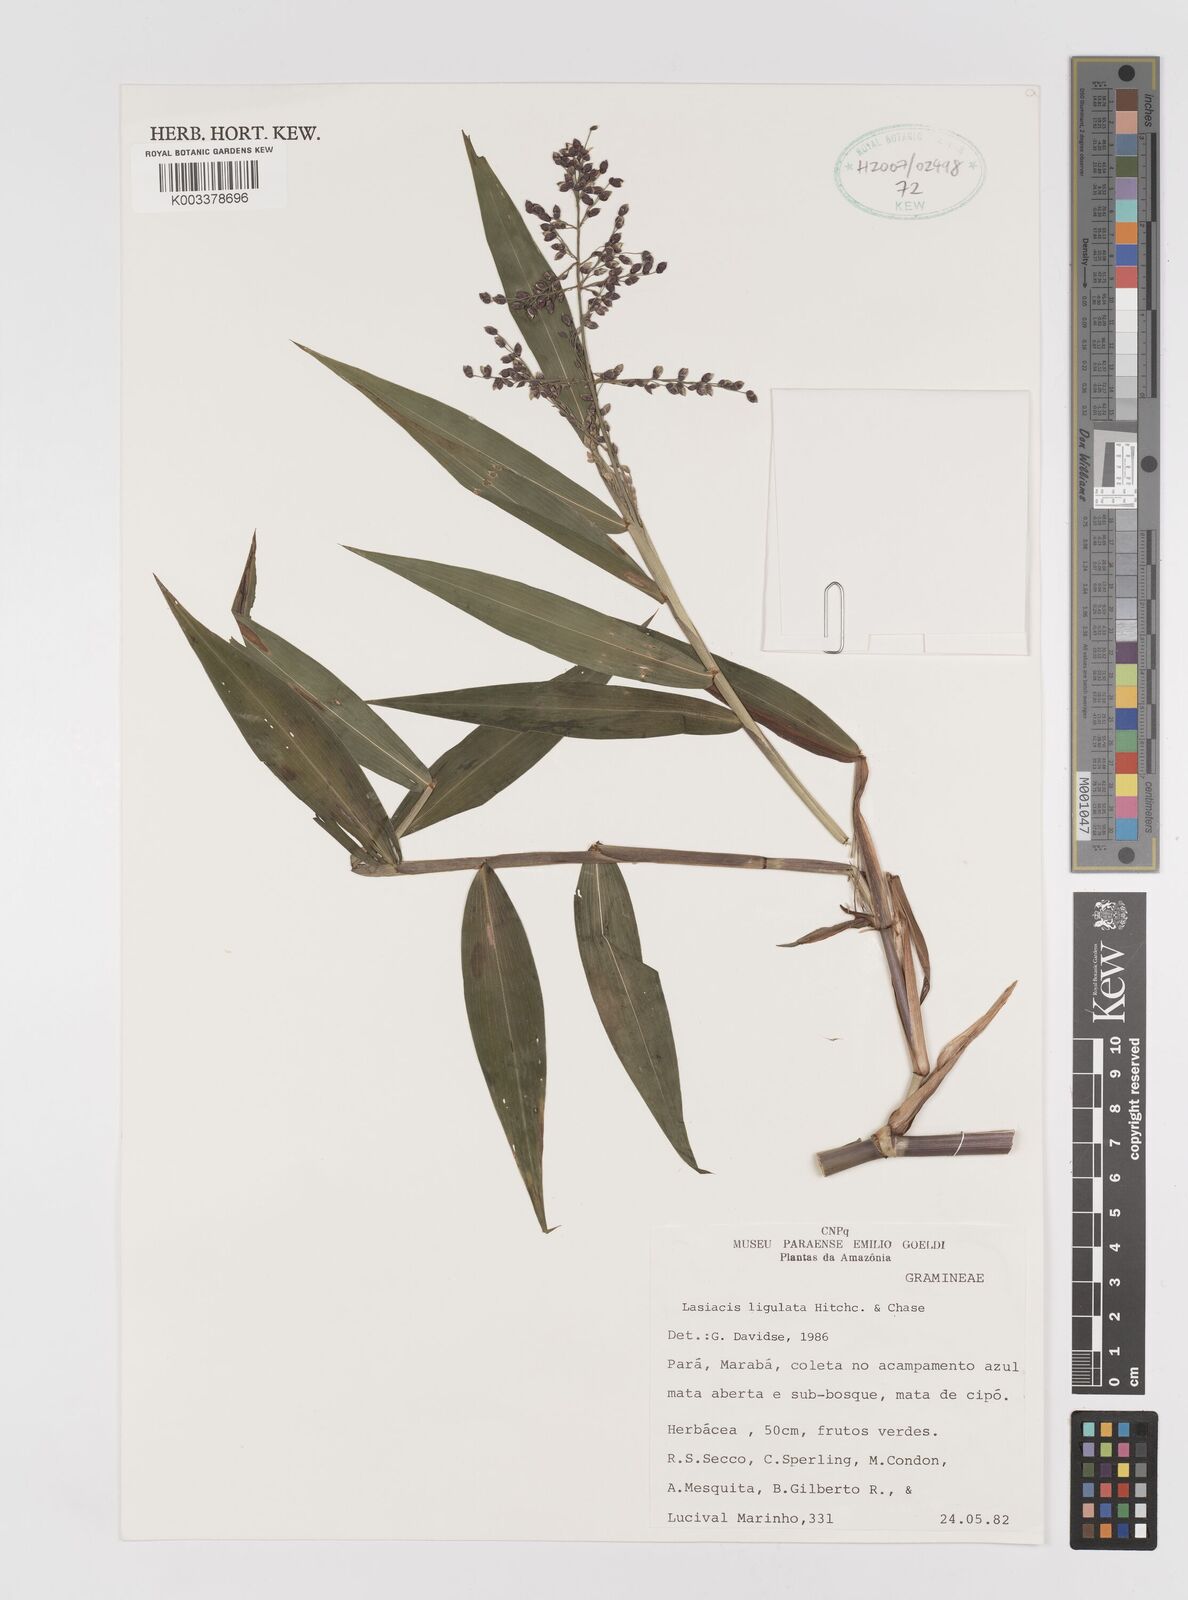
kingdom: Plantae
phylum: Tracheophyta
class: Liliopsida
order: Poales
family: Poaceae
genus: Lasiacis
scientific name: Lasiacis ligulata
